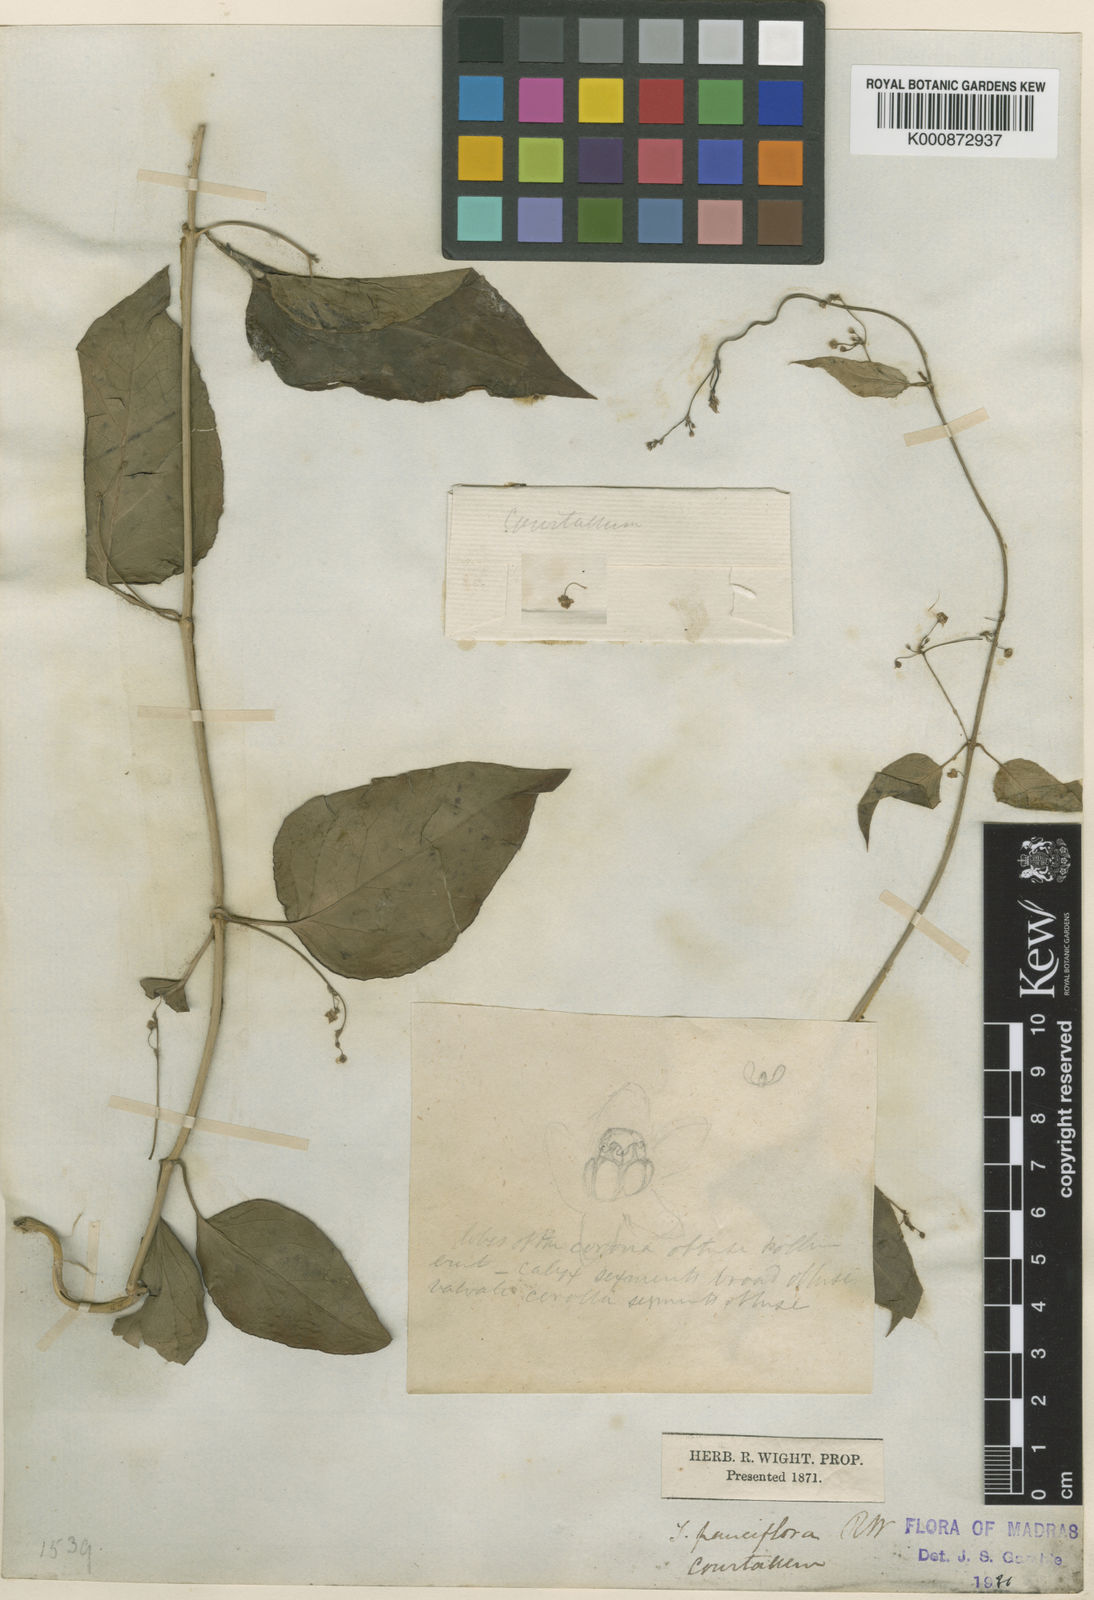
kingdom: Plantae
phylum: Tracheophyta
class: Magnoliopsida
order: Gentianales
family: Apocynaceae
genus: Vincetoxicum
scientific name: Vincetoxicum bracteatum
